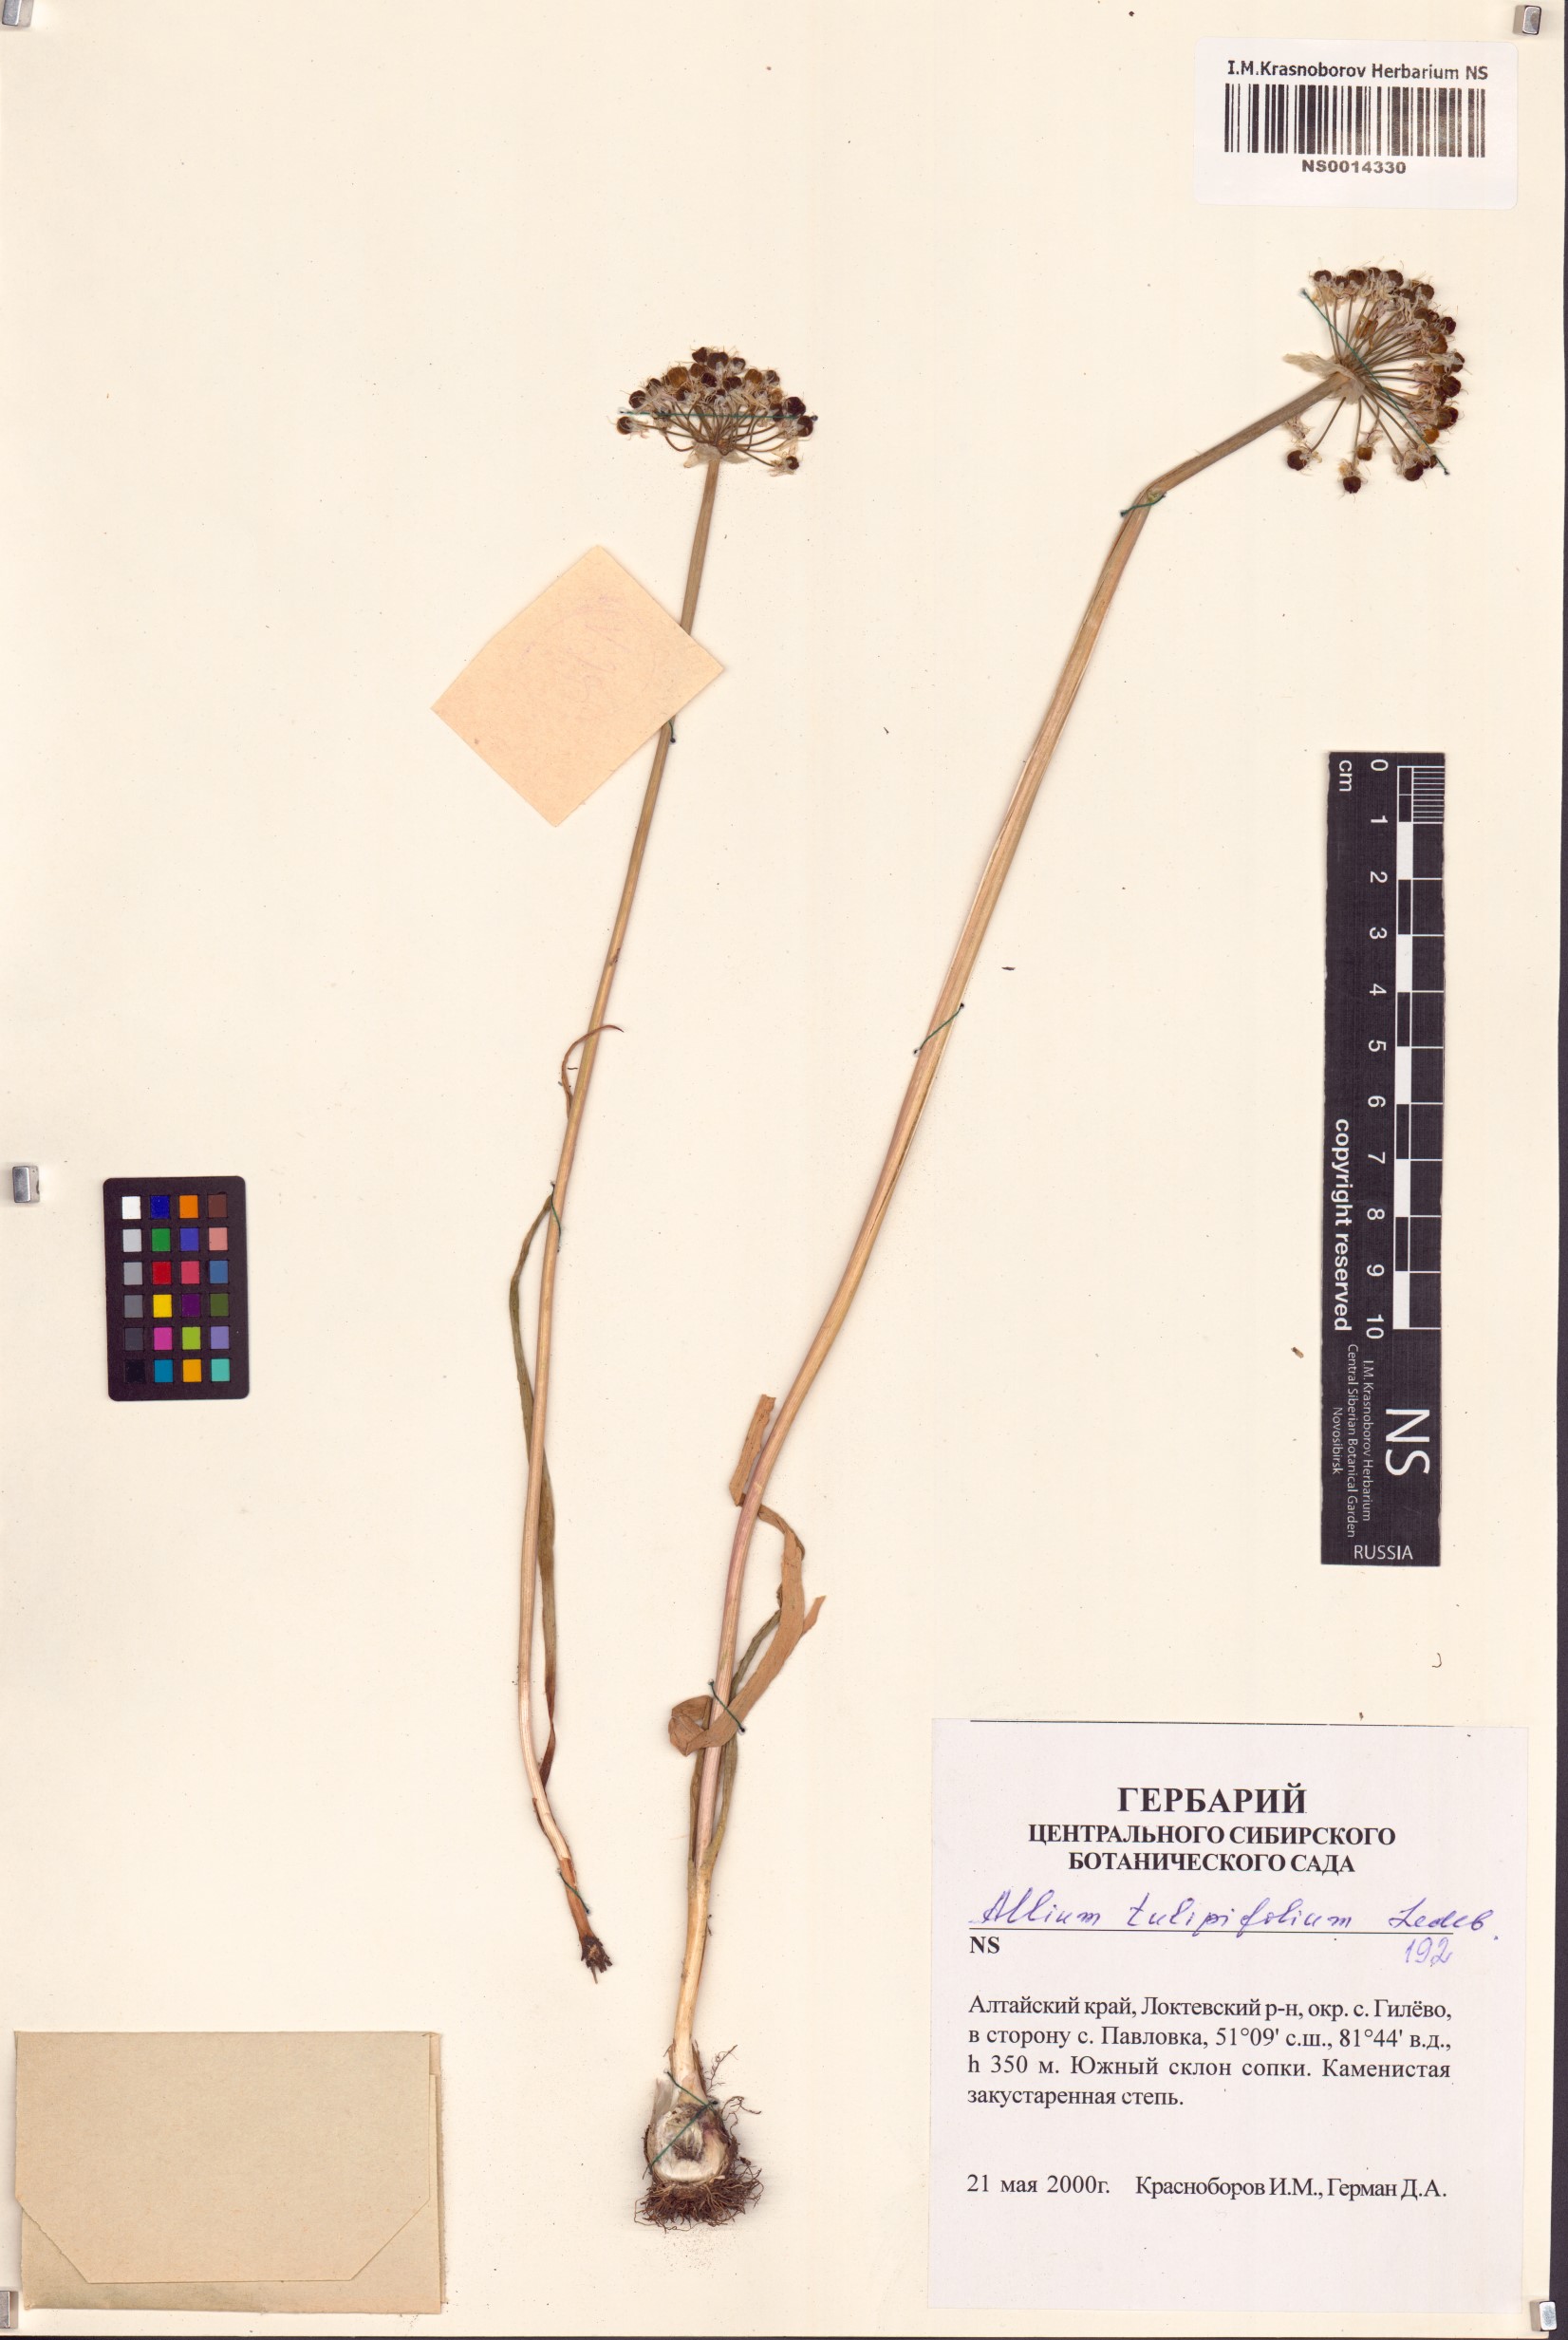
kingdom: Plantae
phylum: Tracheophyta
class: Liliopsida
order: Asparagales
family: Amaryllidaceae
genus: Allium
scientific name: Allium tulipifolium
